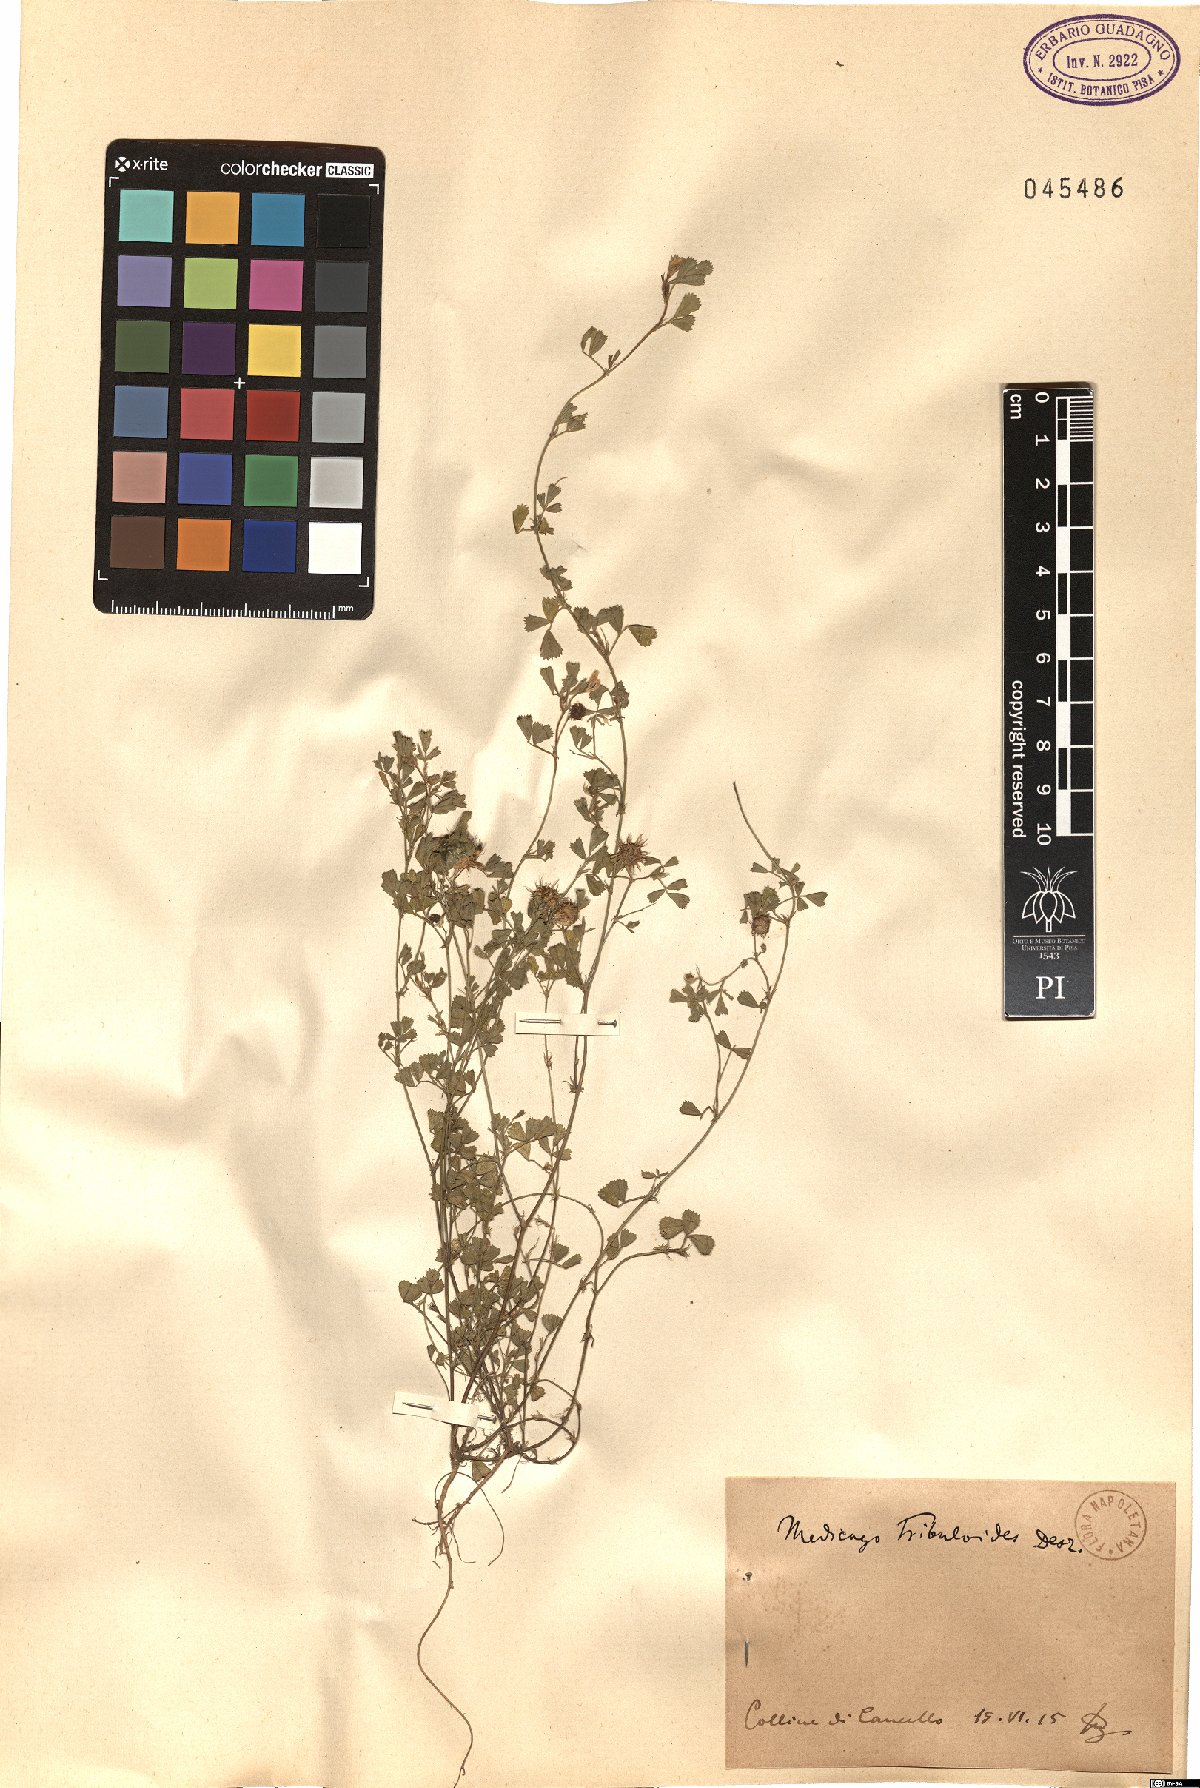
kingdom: Plantae
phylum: Tracheophyta
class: Magnoliopsida
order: Fabales
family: Fabaceae
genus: Medicago
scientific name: Medicago truncatula
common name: Strong-spined medick
